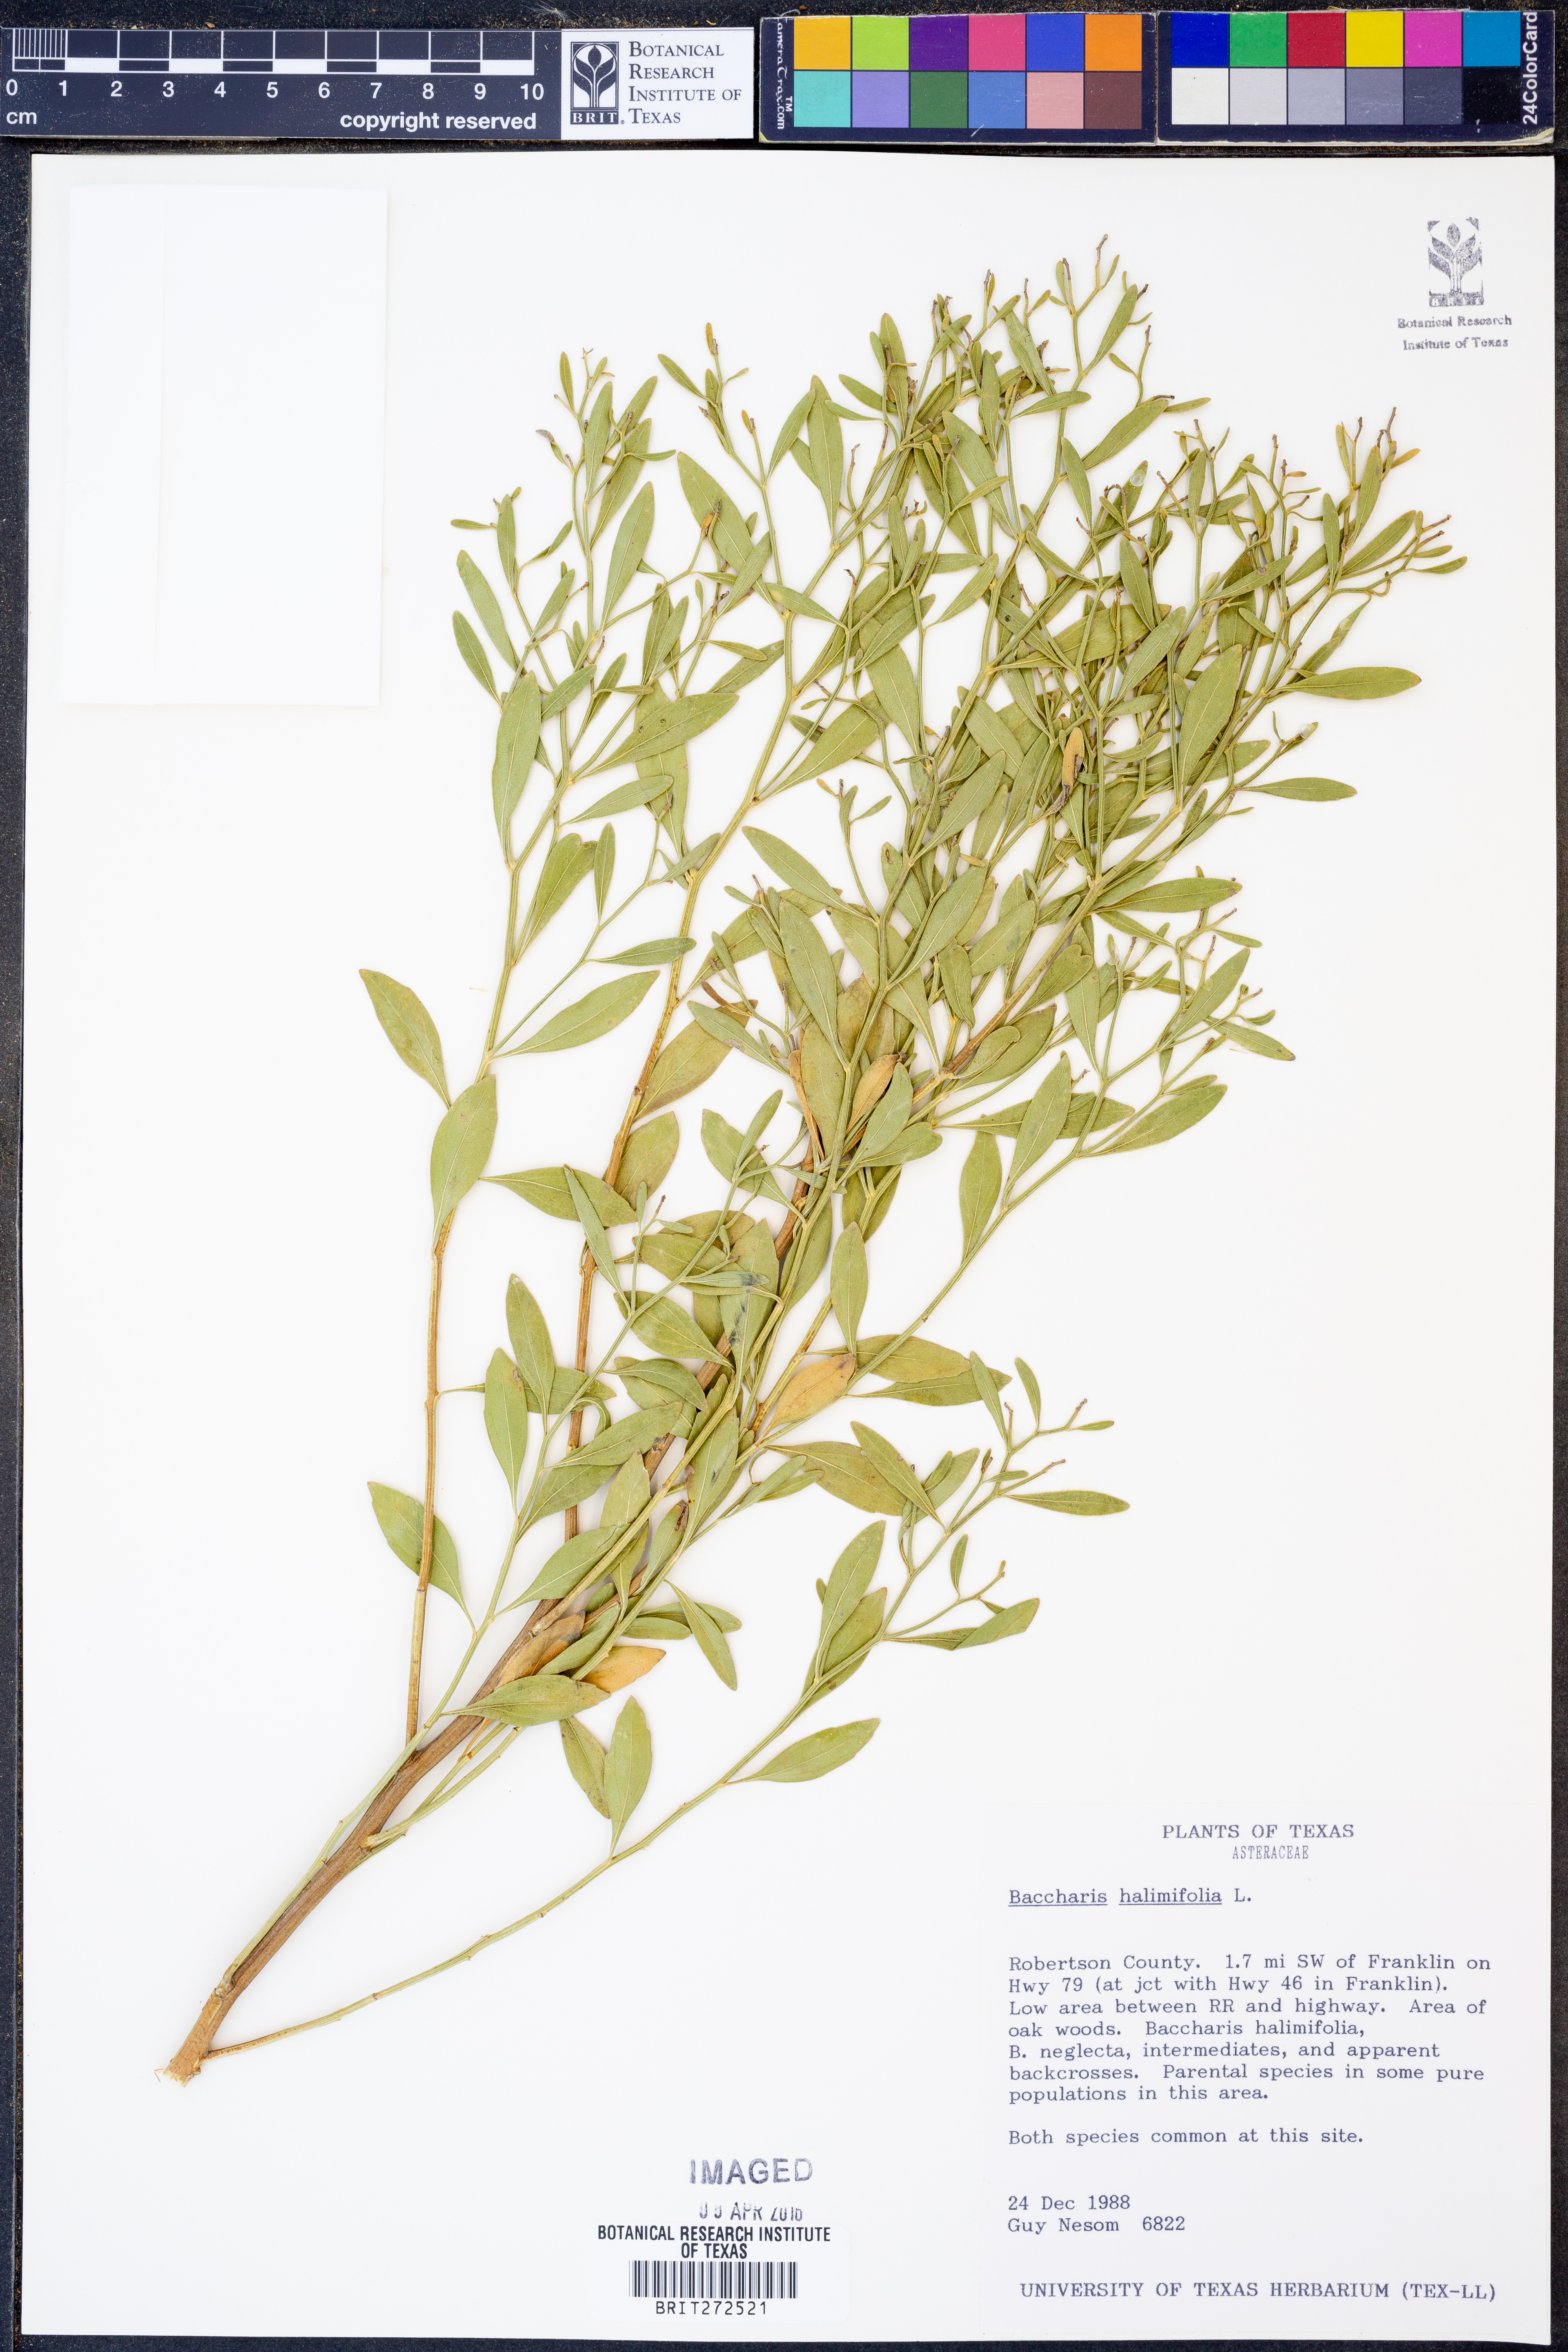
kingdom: Plantae
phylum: Tracheophyta
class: Magnoliopsida
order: Asterales
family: Asteraceae
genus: Nidorella
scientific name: Nidorella ivifolia
